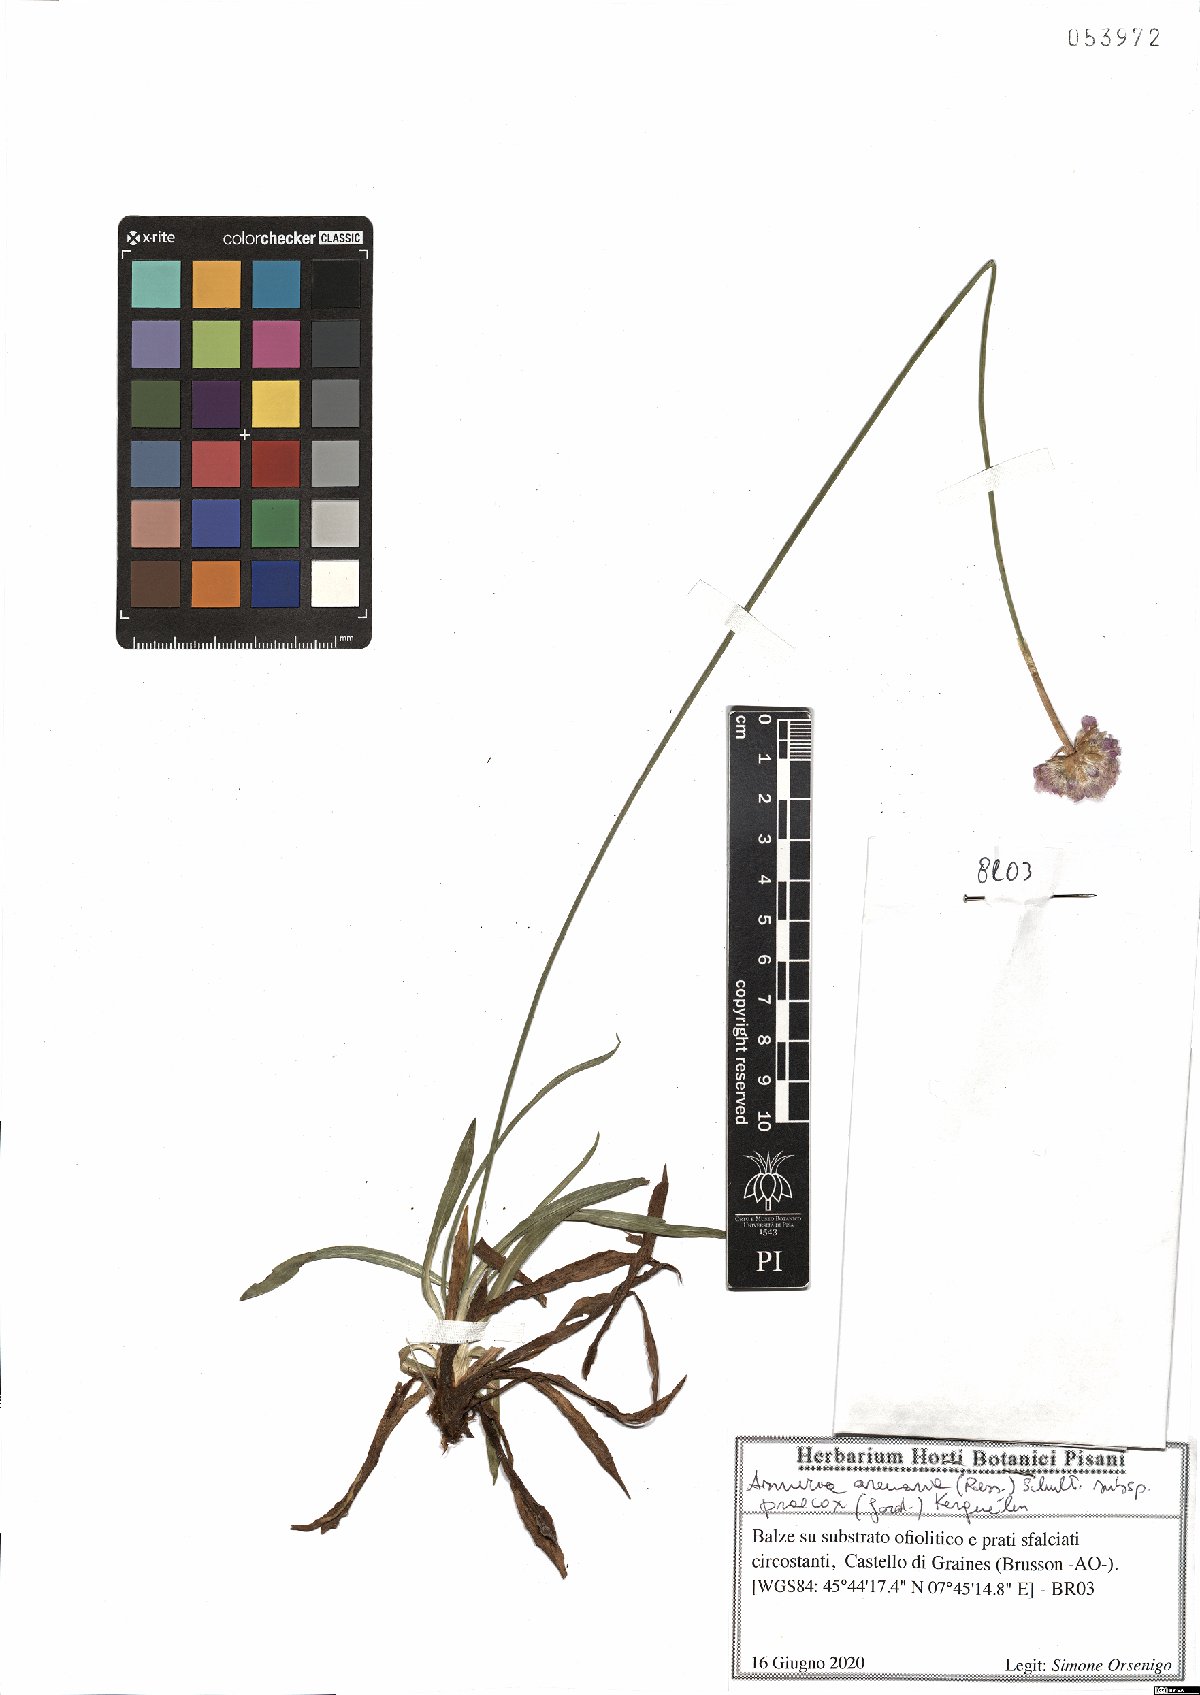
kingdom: Plantae
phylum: Tracheophyta
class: Magnoliopsida
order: Caryophyllales
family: Plumbaginaceae
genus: Armeria
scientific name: Armeria arenaria
